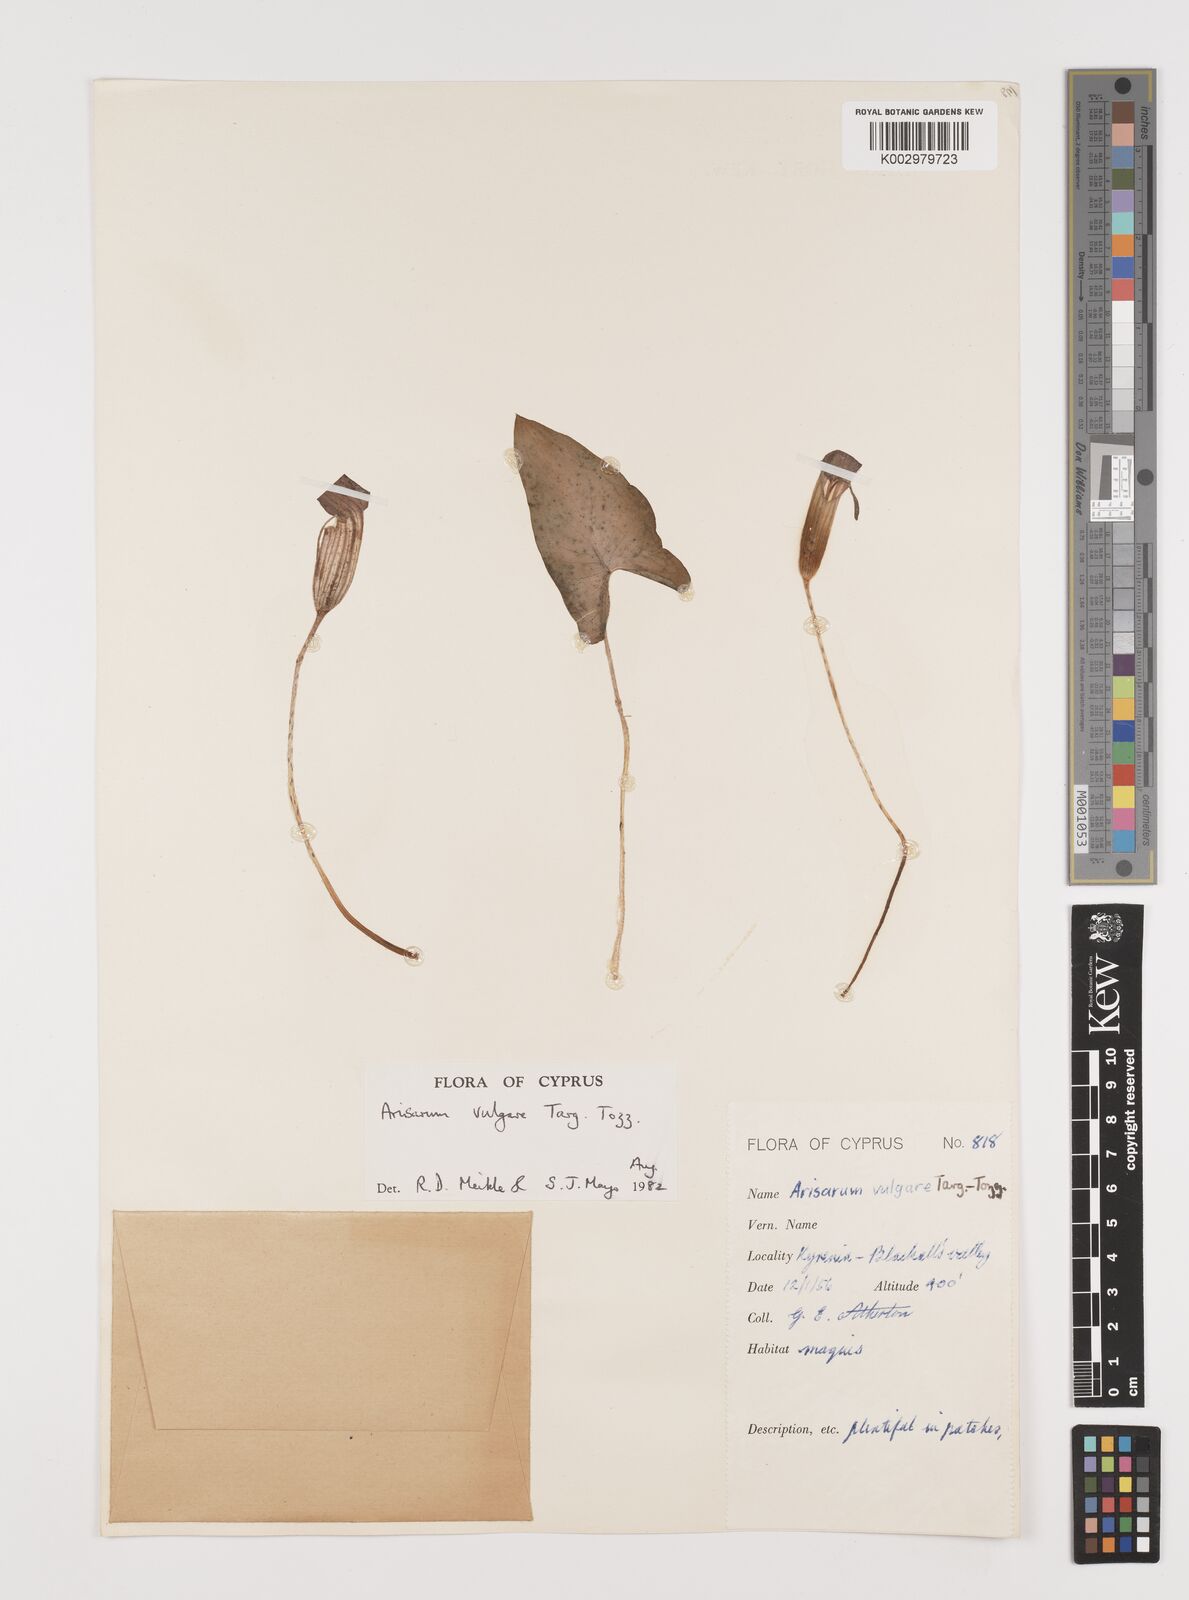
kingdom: Plantae
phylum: Tracheophyta
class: Liliopsida
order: Alismatales
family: Araceae
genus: Arisarum
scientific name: Arisarum vulgare
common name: Common arisarum
